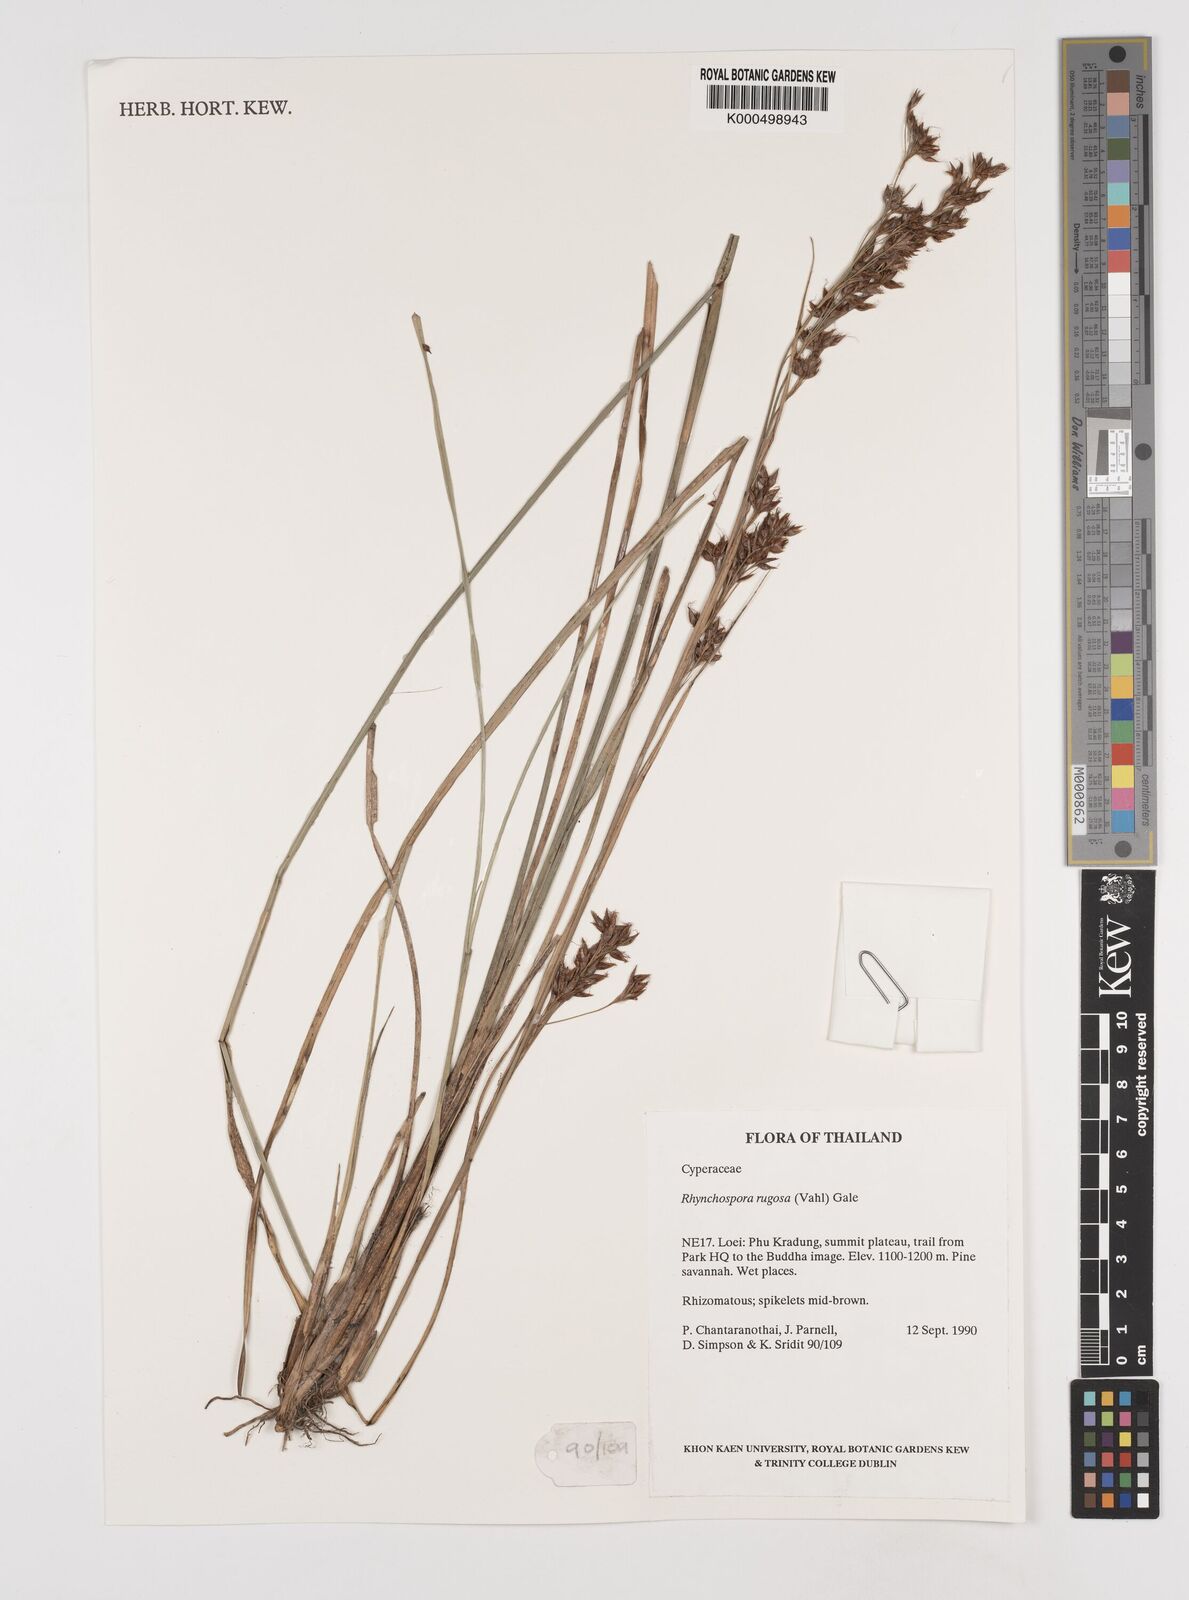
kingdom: Plantae
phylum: Tracheophyta
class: Liliopsida
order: Poales
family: Cyperaceae
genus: Rhynchospora
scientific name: Rhynchospora rugosa
